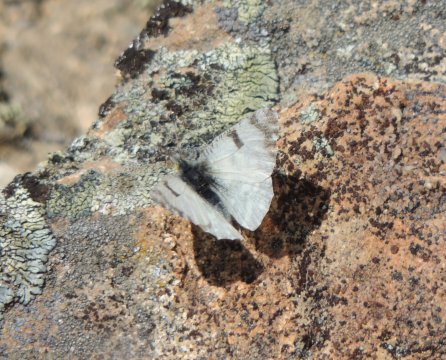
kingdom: Animalia
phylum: Arthropoda
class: Insecta
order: Lepidoptera
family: Pieridae
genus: Euchloe
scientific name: Euchloe lotta
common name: Desert Marble
